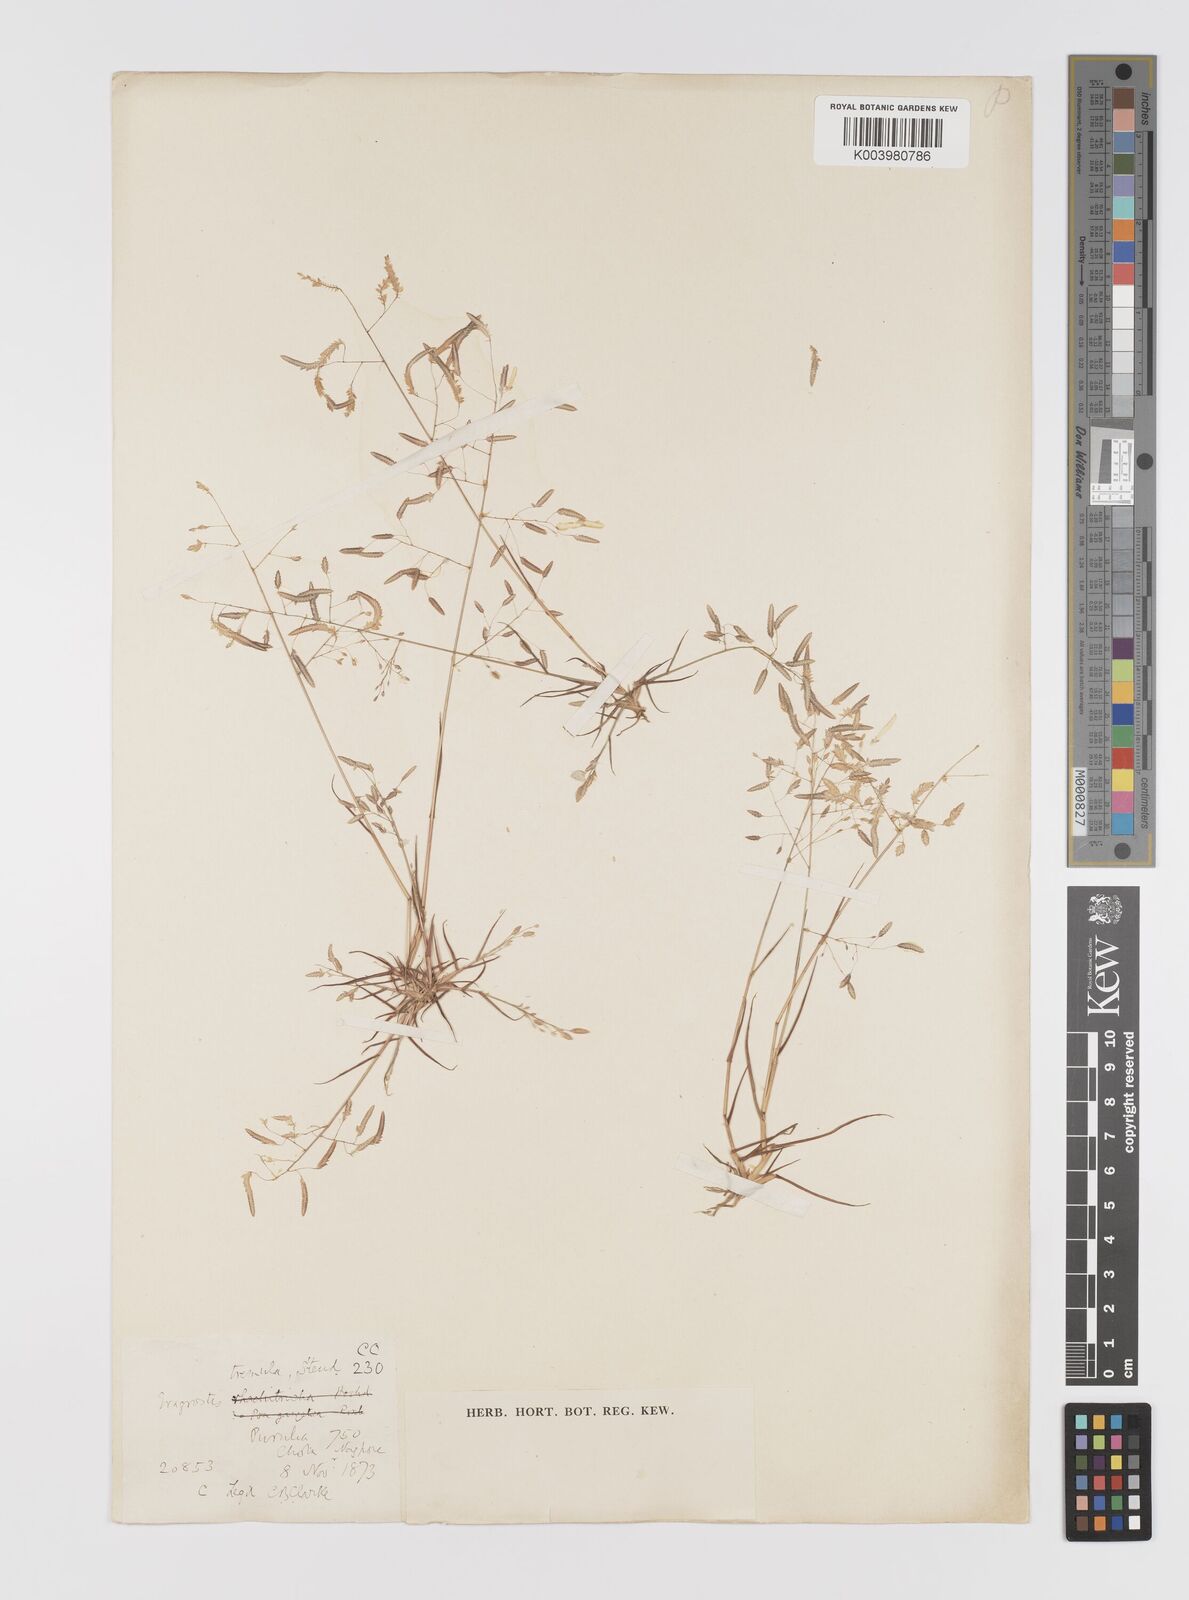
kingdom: Plantae
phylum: Tracheophyta
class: Liliopsida
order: Poales
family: Poaceae
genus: Eragrostis
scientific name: Eragrostis tremula
